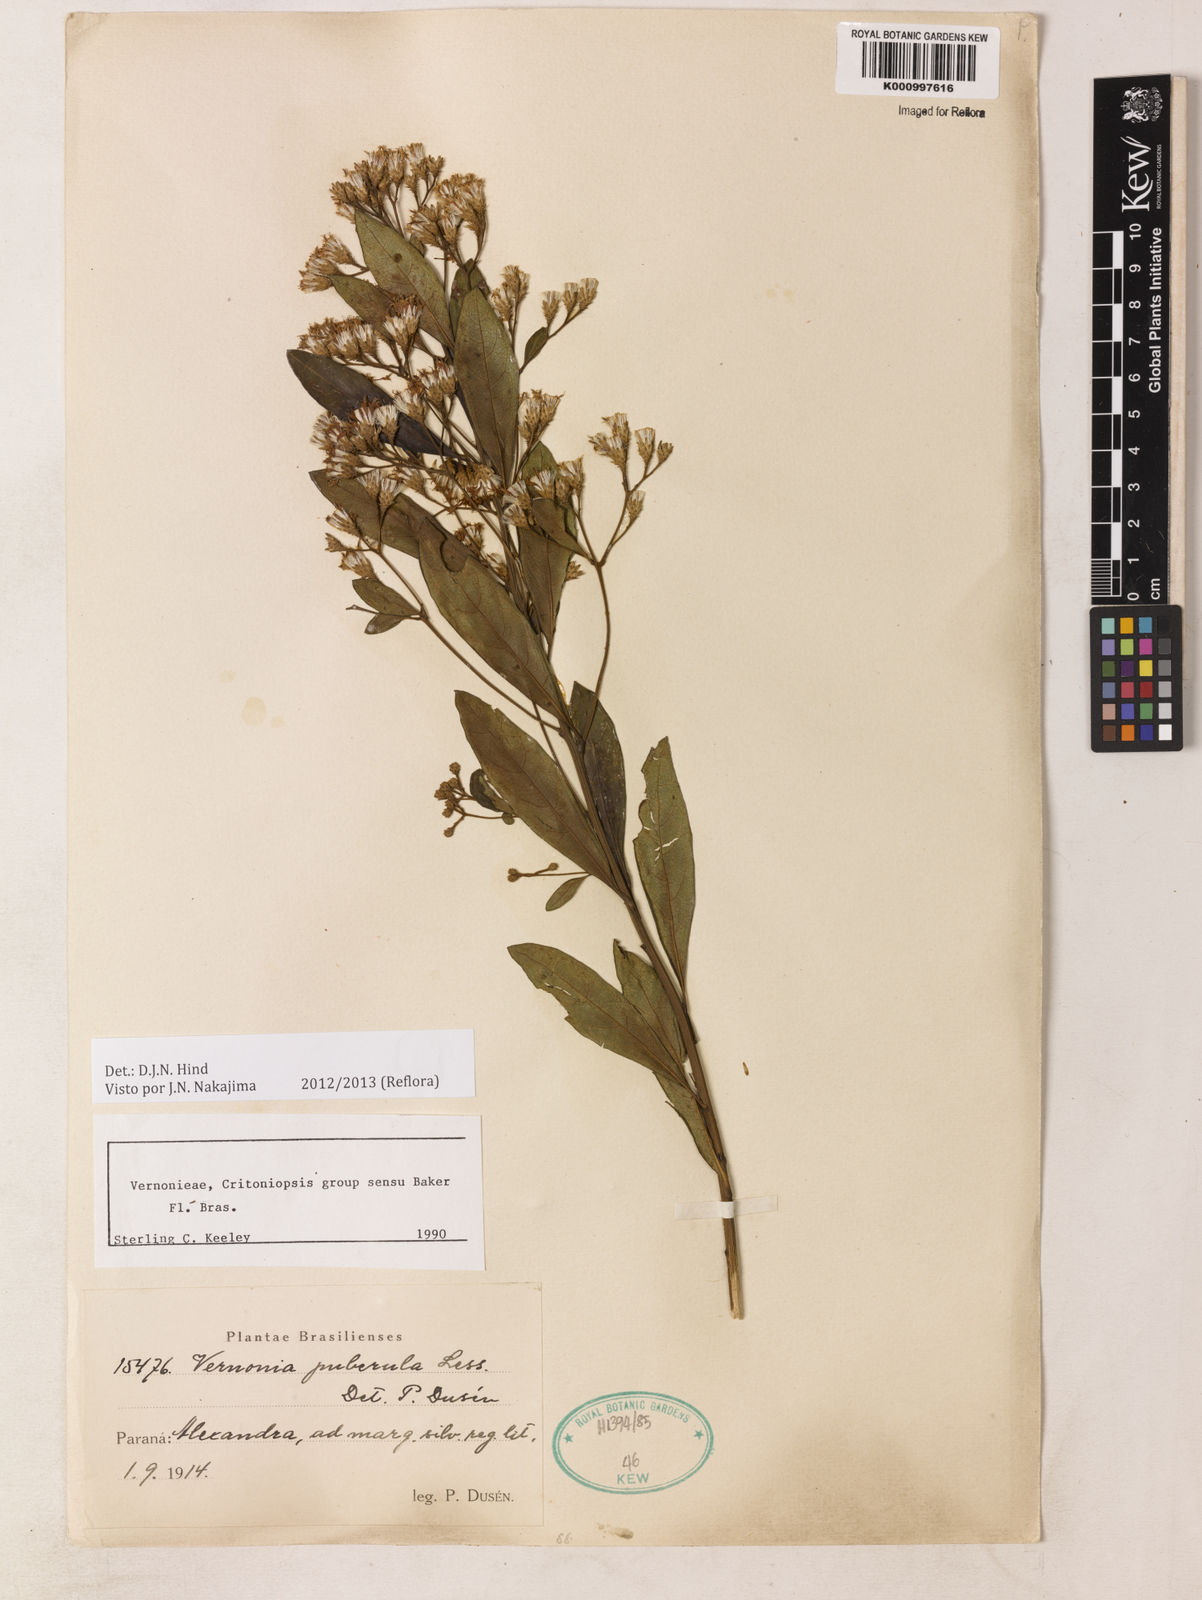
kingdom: Plantae
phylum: Tracheophyta
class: Magnoliopsida
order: Asterales
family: Asteraceae
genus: Vernonanthura
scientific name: Vernonanthura puberula
